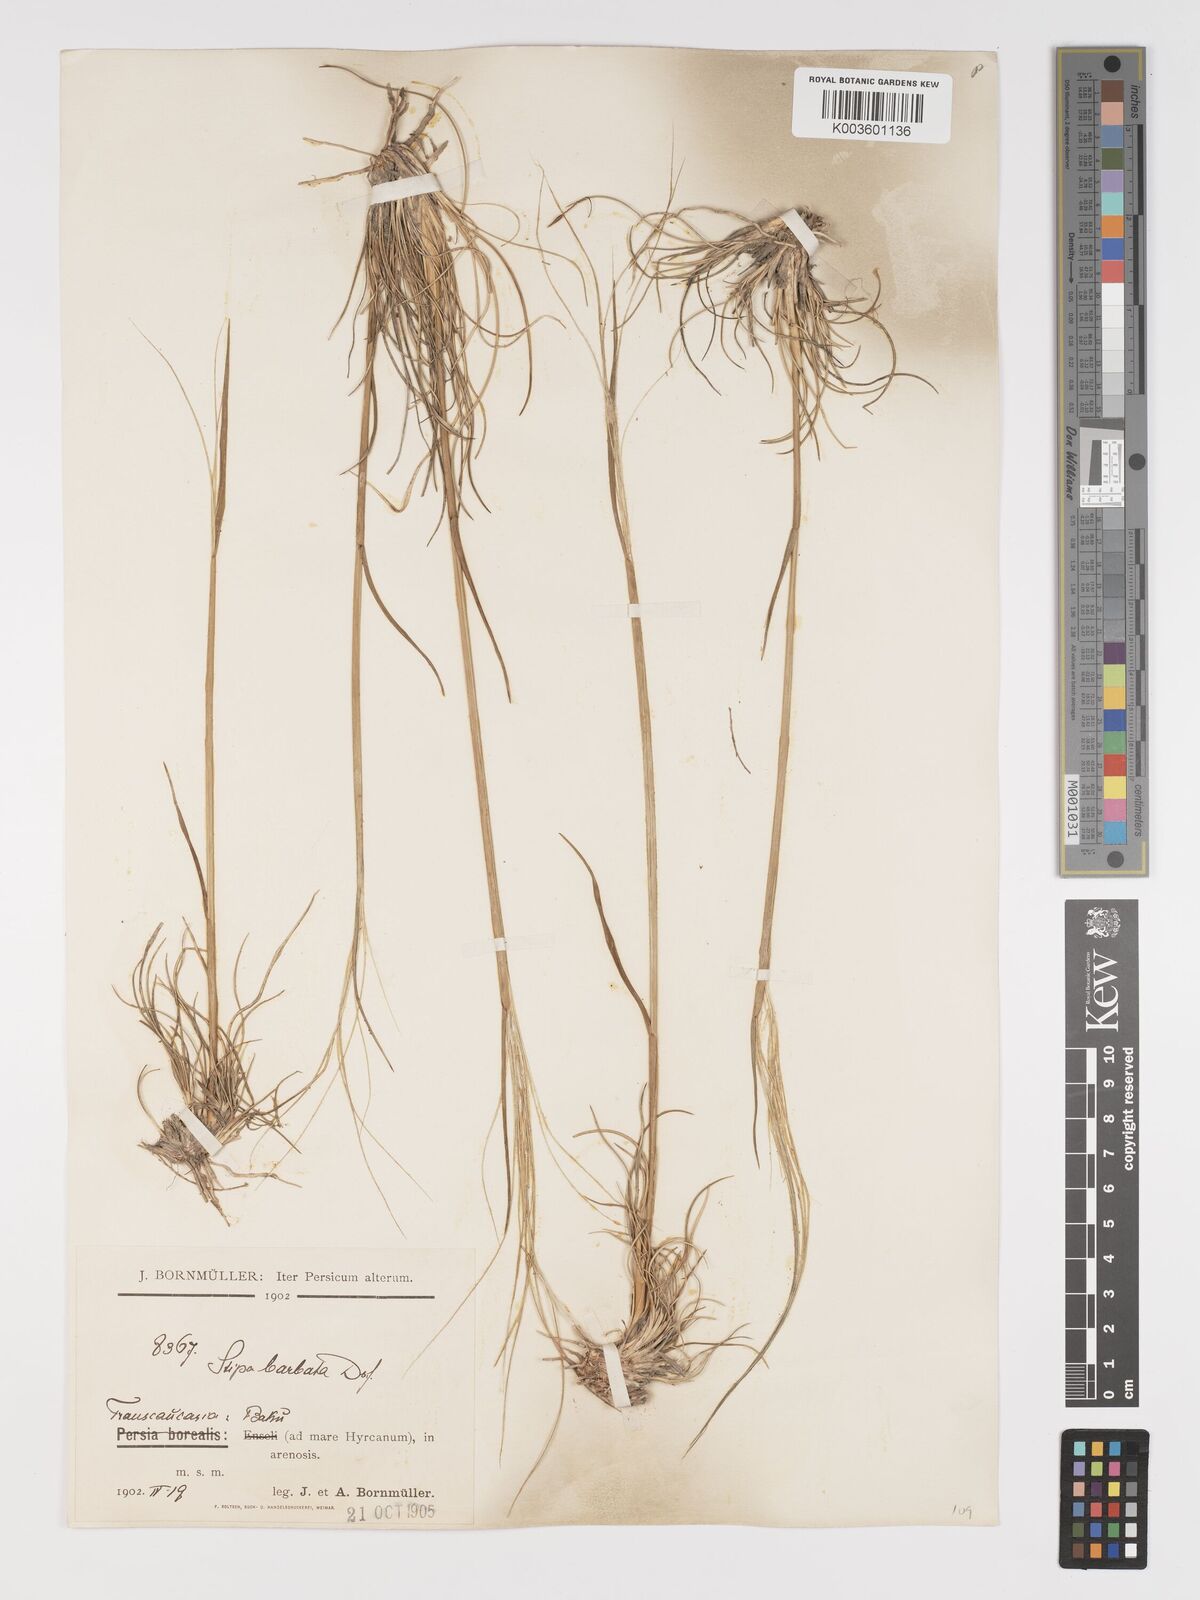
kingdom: Plantae
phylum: Tracheophyta
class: Liliopsida
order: Poales
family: Poaceae
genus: Stipa
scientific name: Stipa arabica
